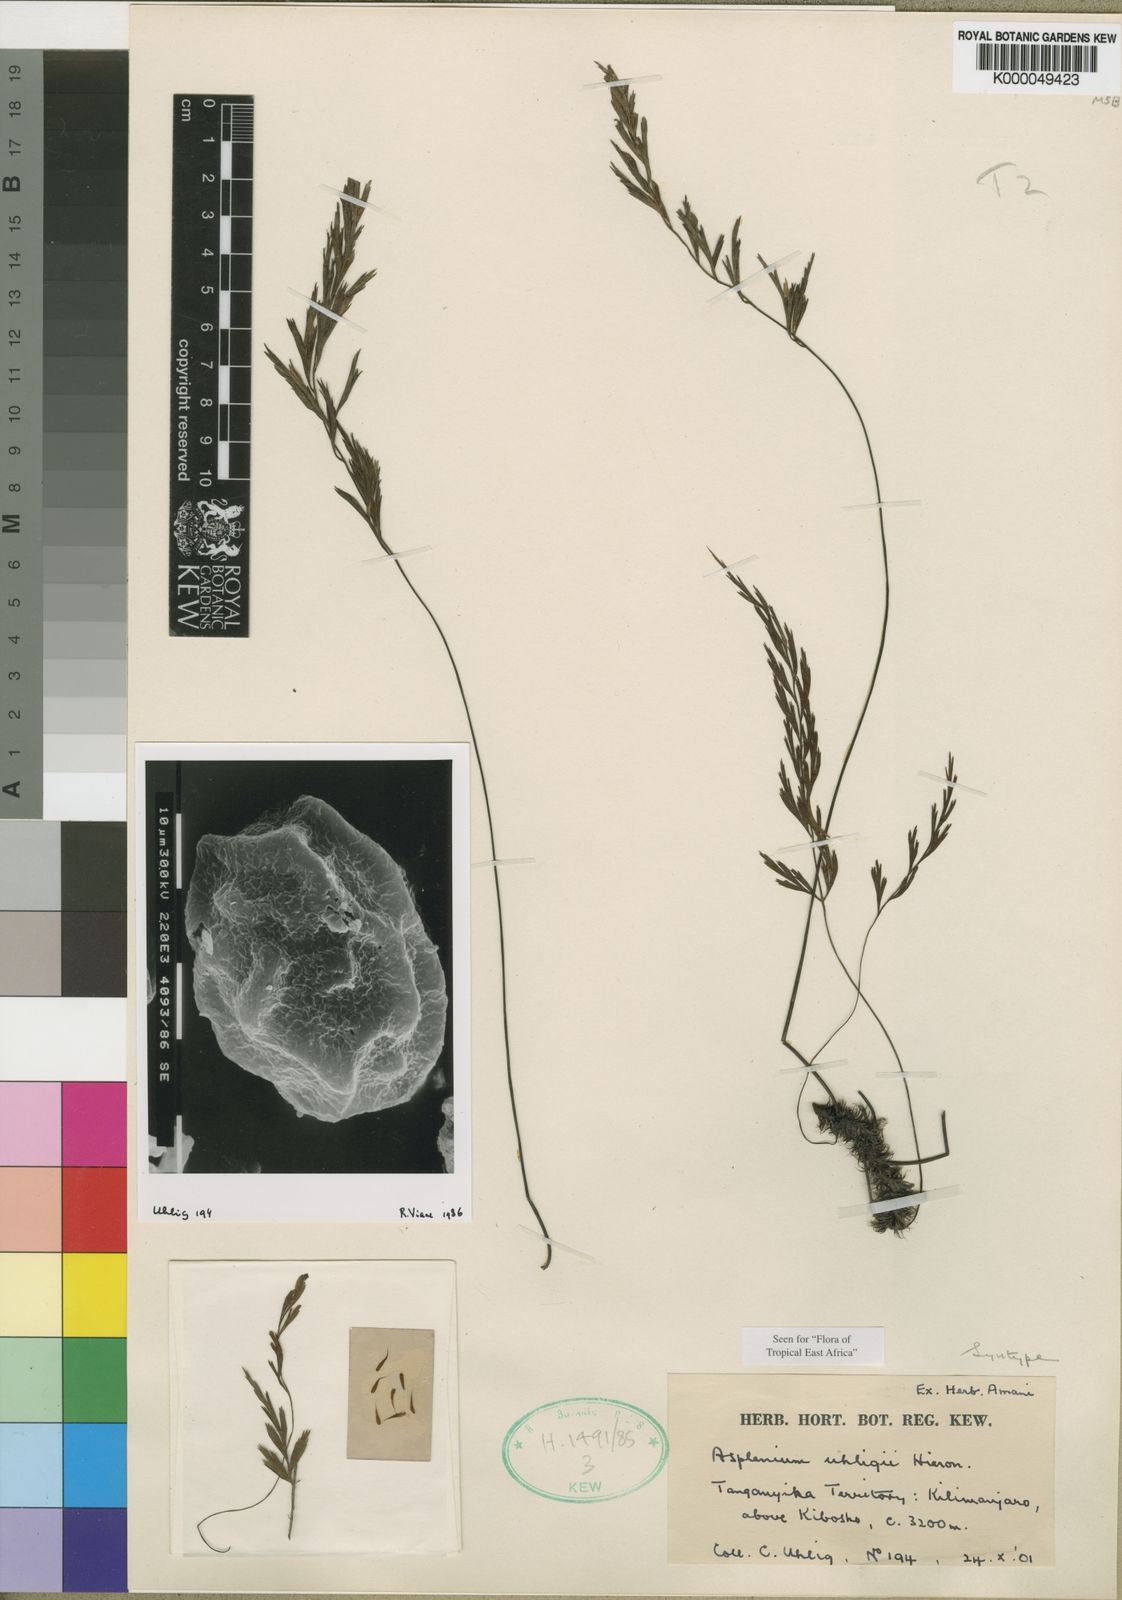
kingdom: Plantae
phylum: Tracheophyta
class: Polypodiopsida
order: Polypodiales
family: Aspleniaceae
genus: Asplenium
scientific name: Asplenium uhligii
